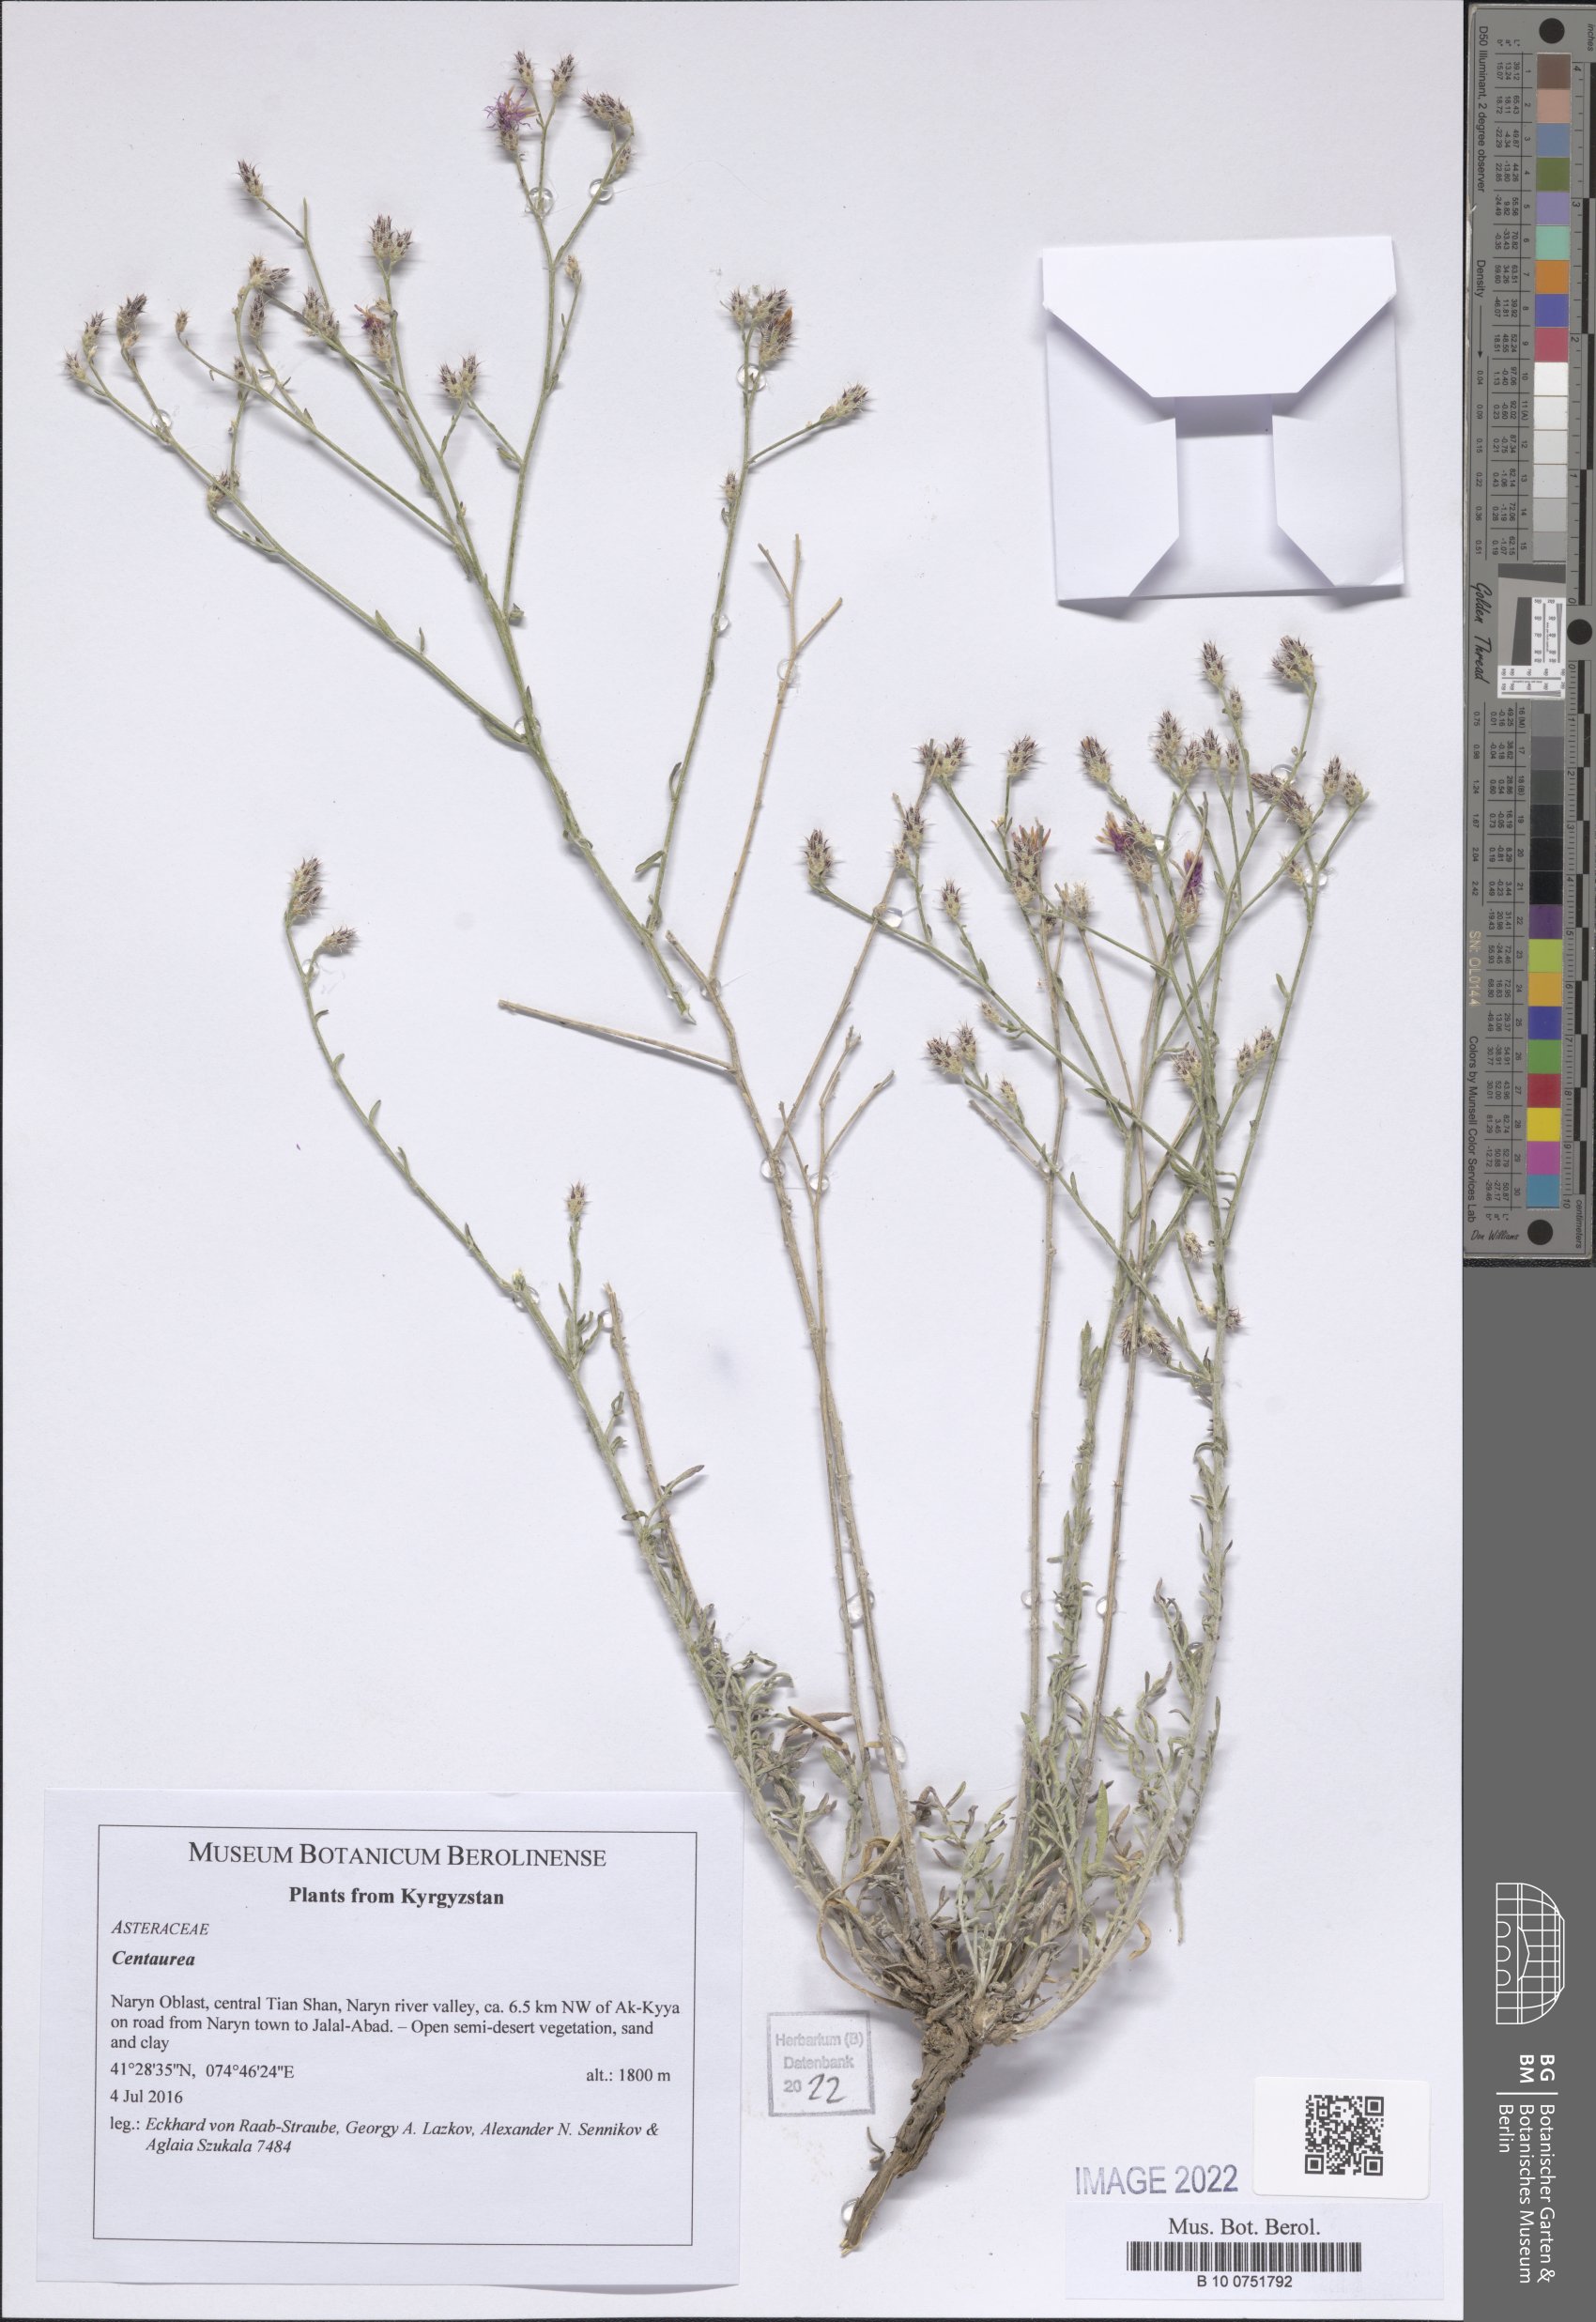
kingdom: Plantae
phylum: Tracheophyta
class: Magnoliopsida
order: Asterales
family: Asteraceae
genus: Centaurea
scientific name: Centaurea
